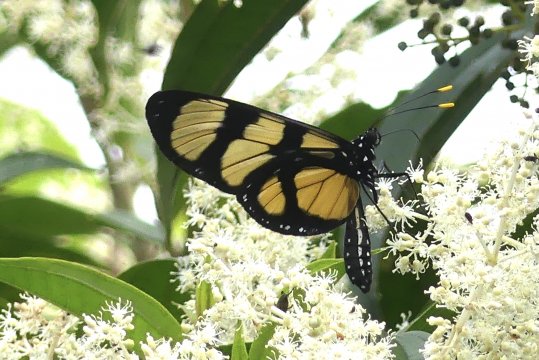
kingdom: Animalia
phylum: Arthropoda
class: Insecta
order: Lepidoptera
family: Nymphalidae
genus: Methona
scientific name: Methona confusa
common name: Confusa Tigerwing
